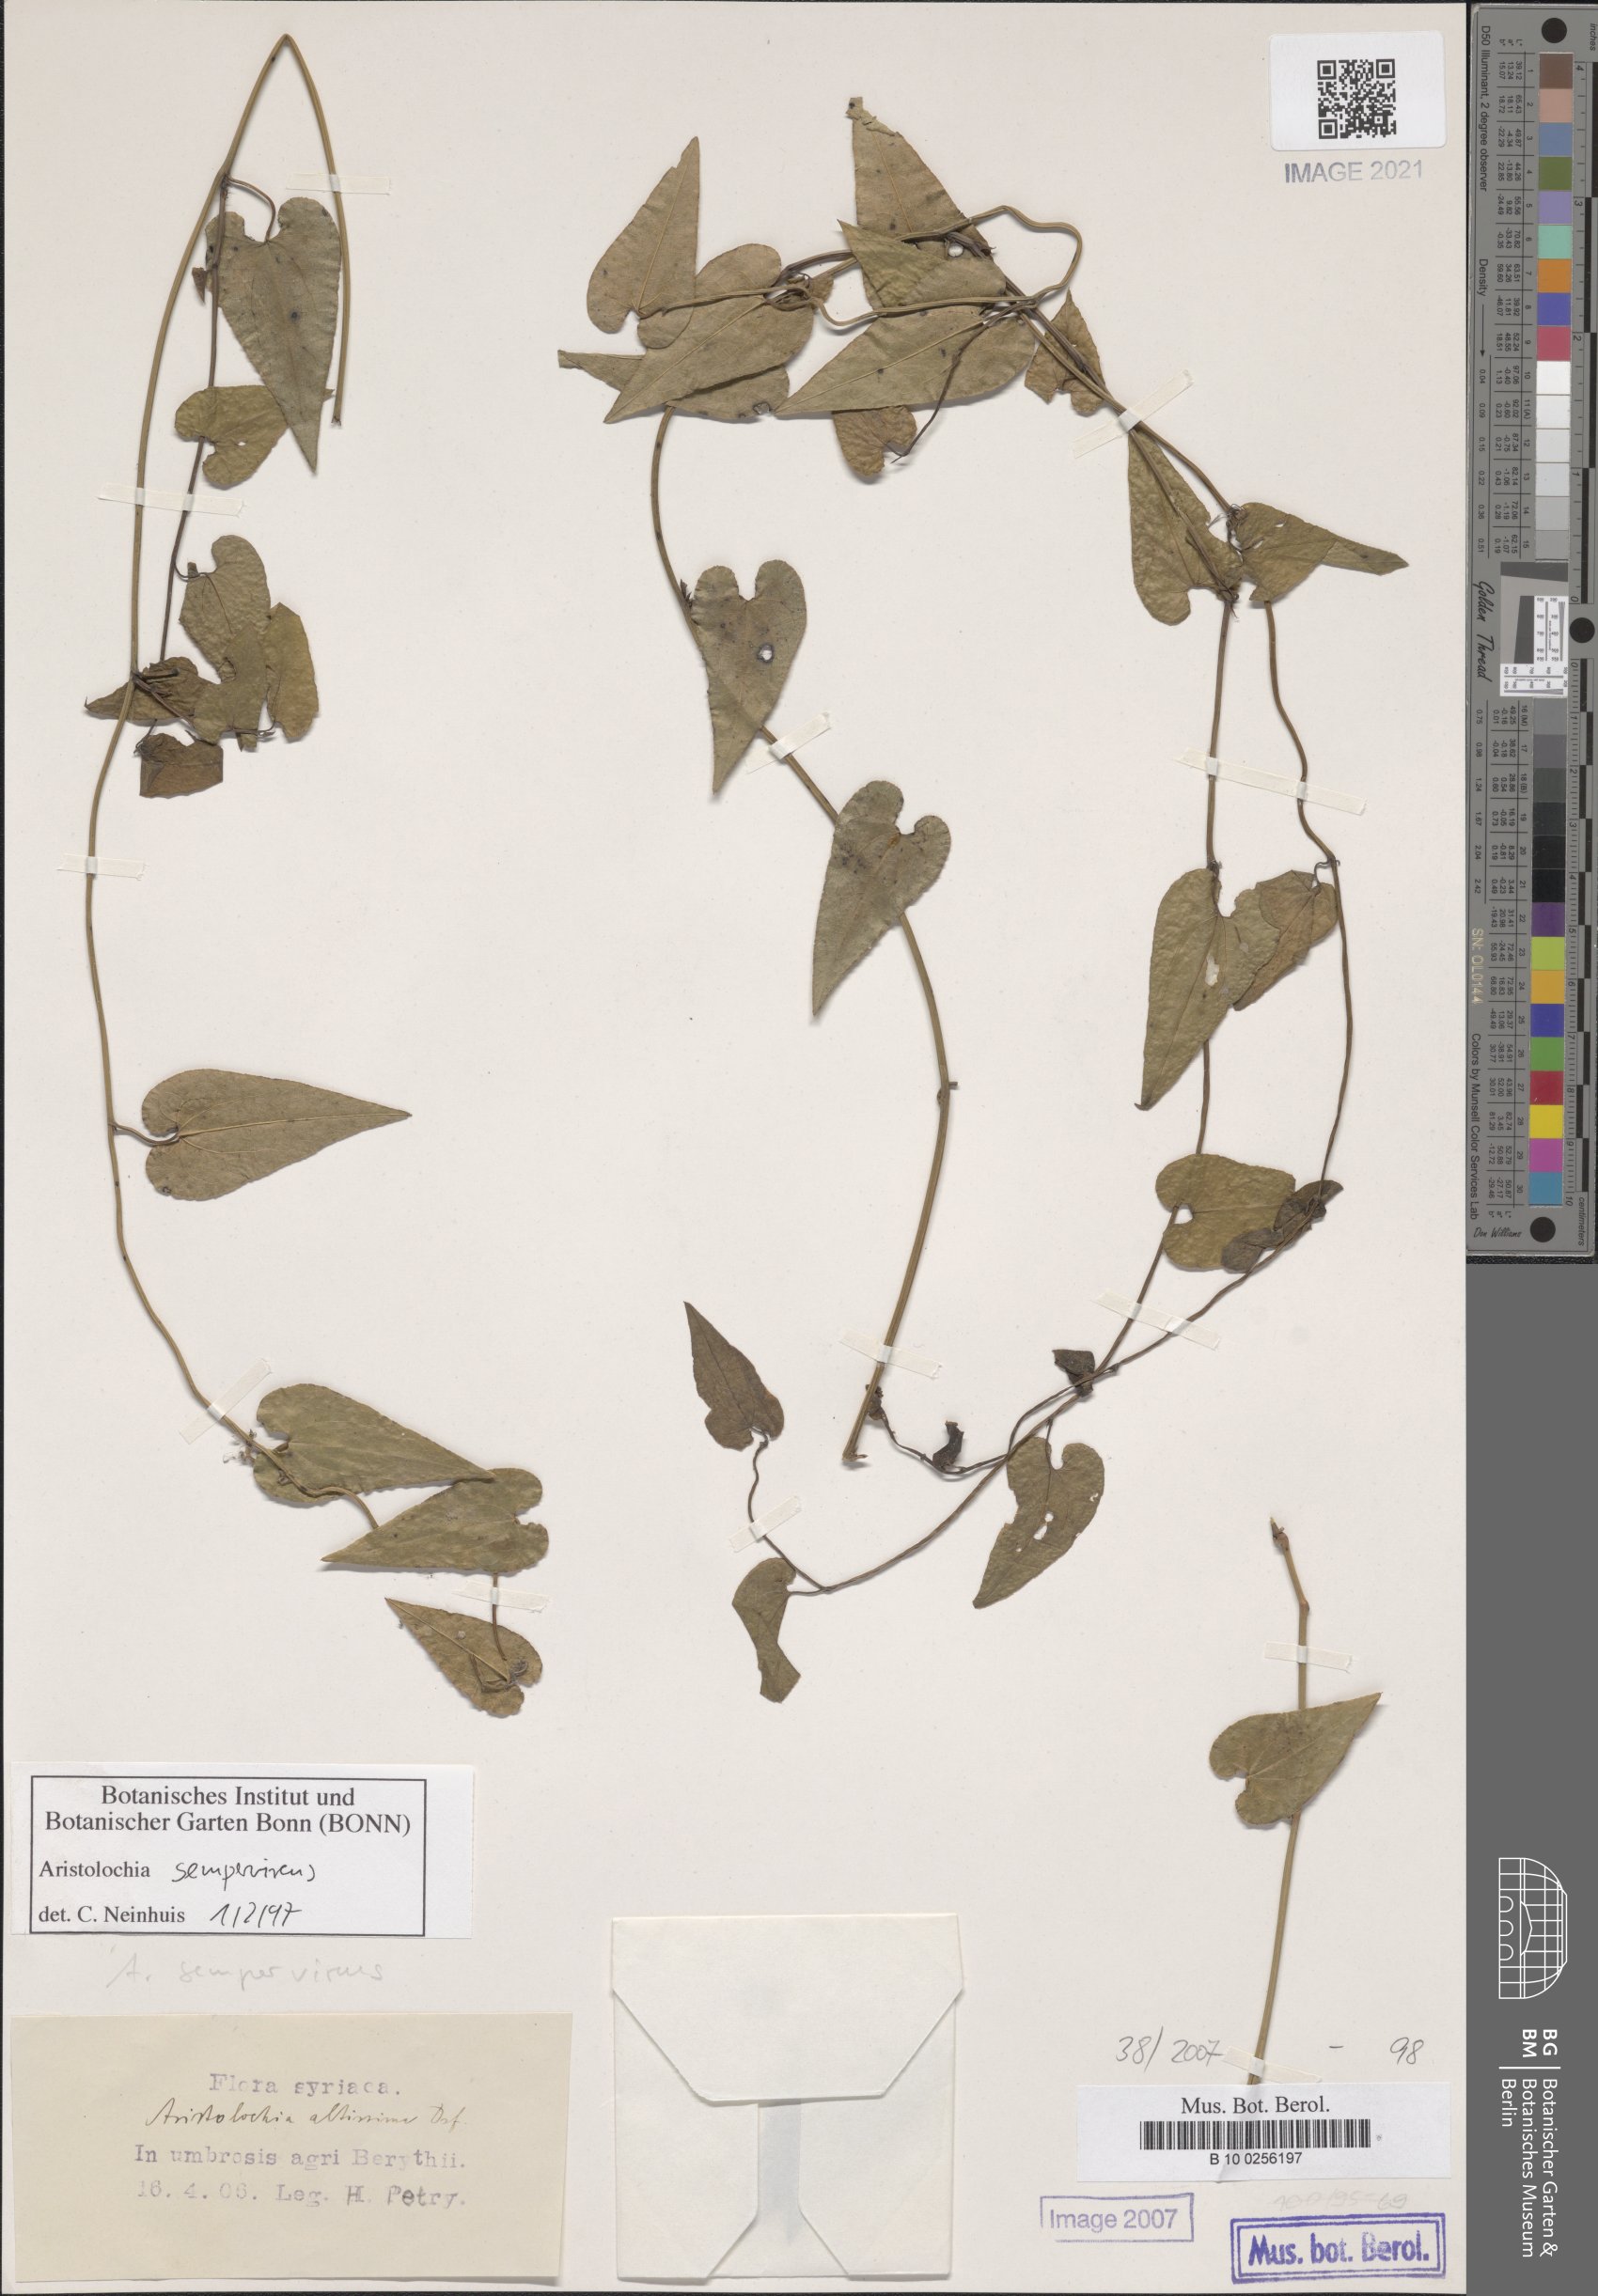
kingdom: Plantae
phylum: Tracheophyta
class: Magnoliopsida
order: Piperales
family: Aristolochiaceae
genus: Aristolochia
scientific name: Aristolochia sempervirens
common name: Long birthwort
